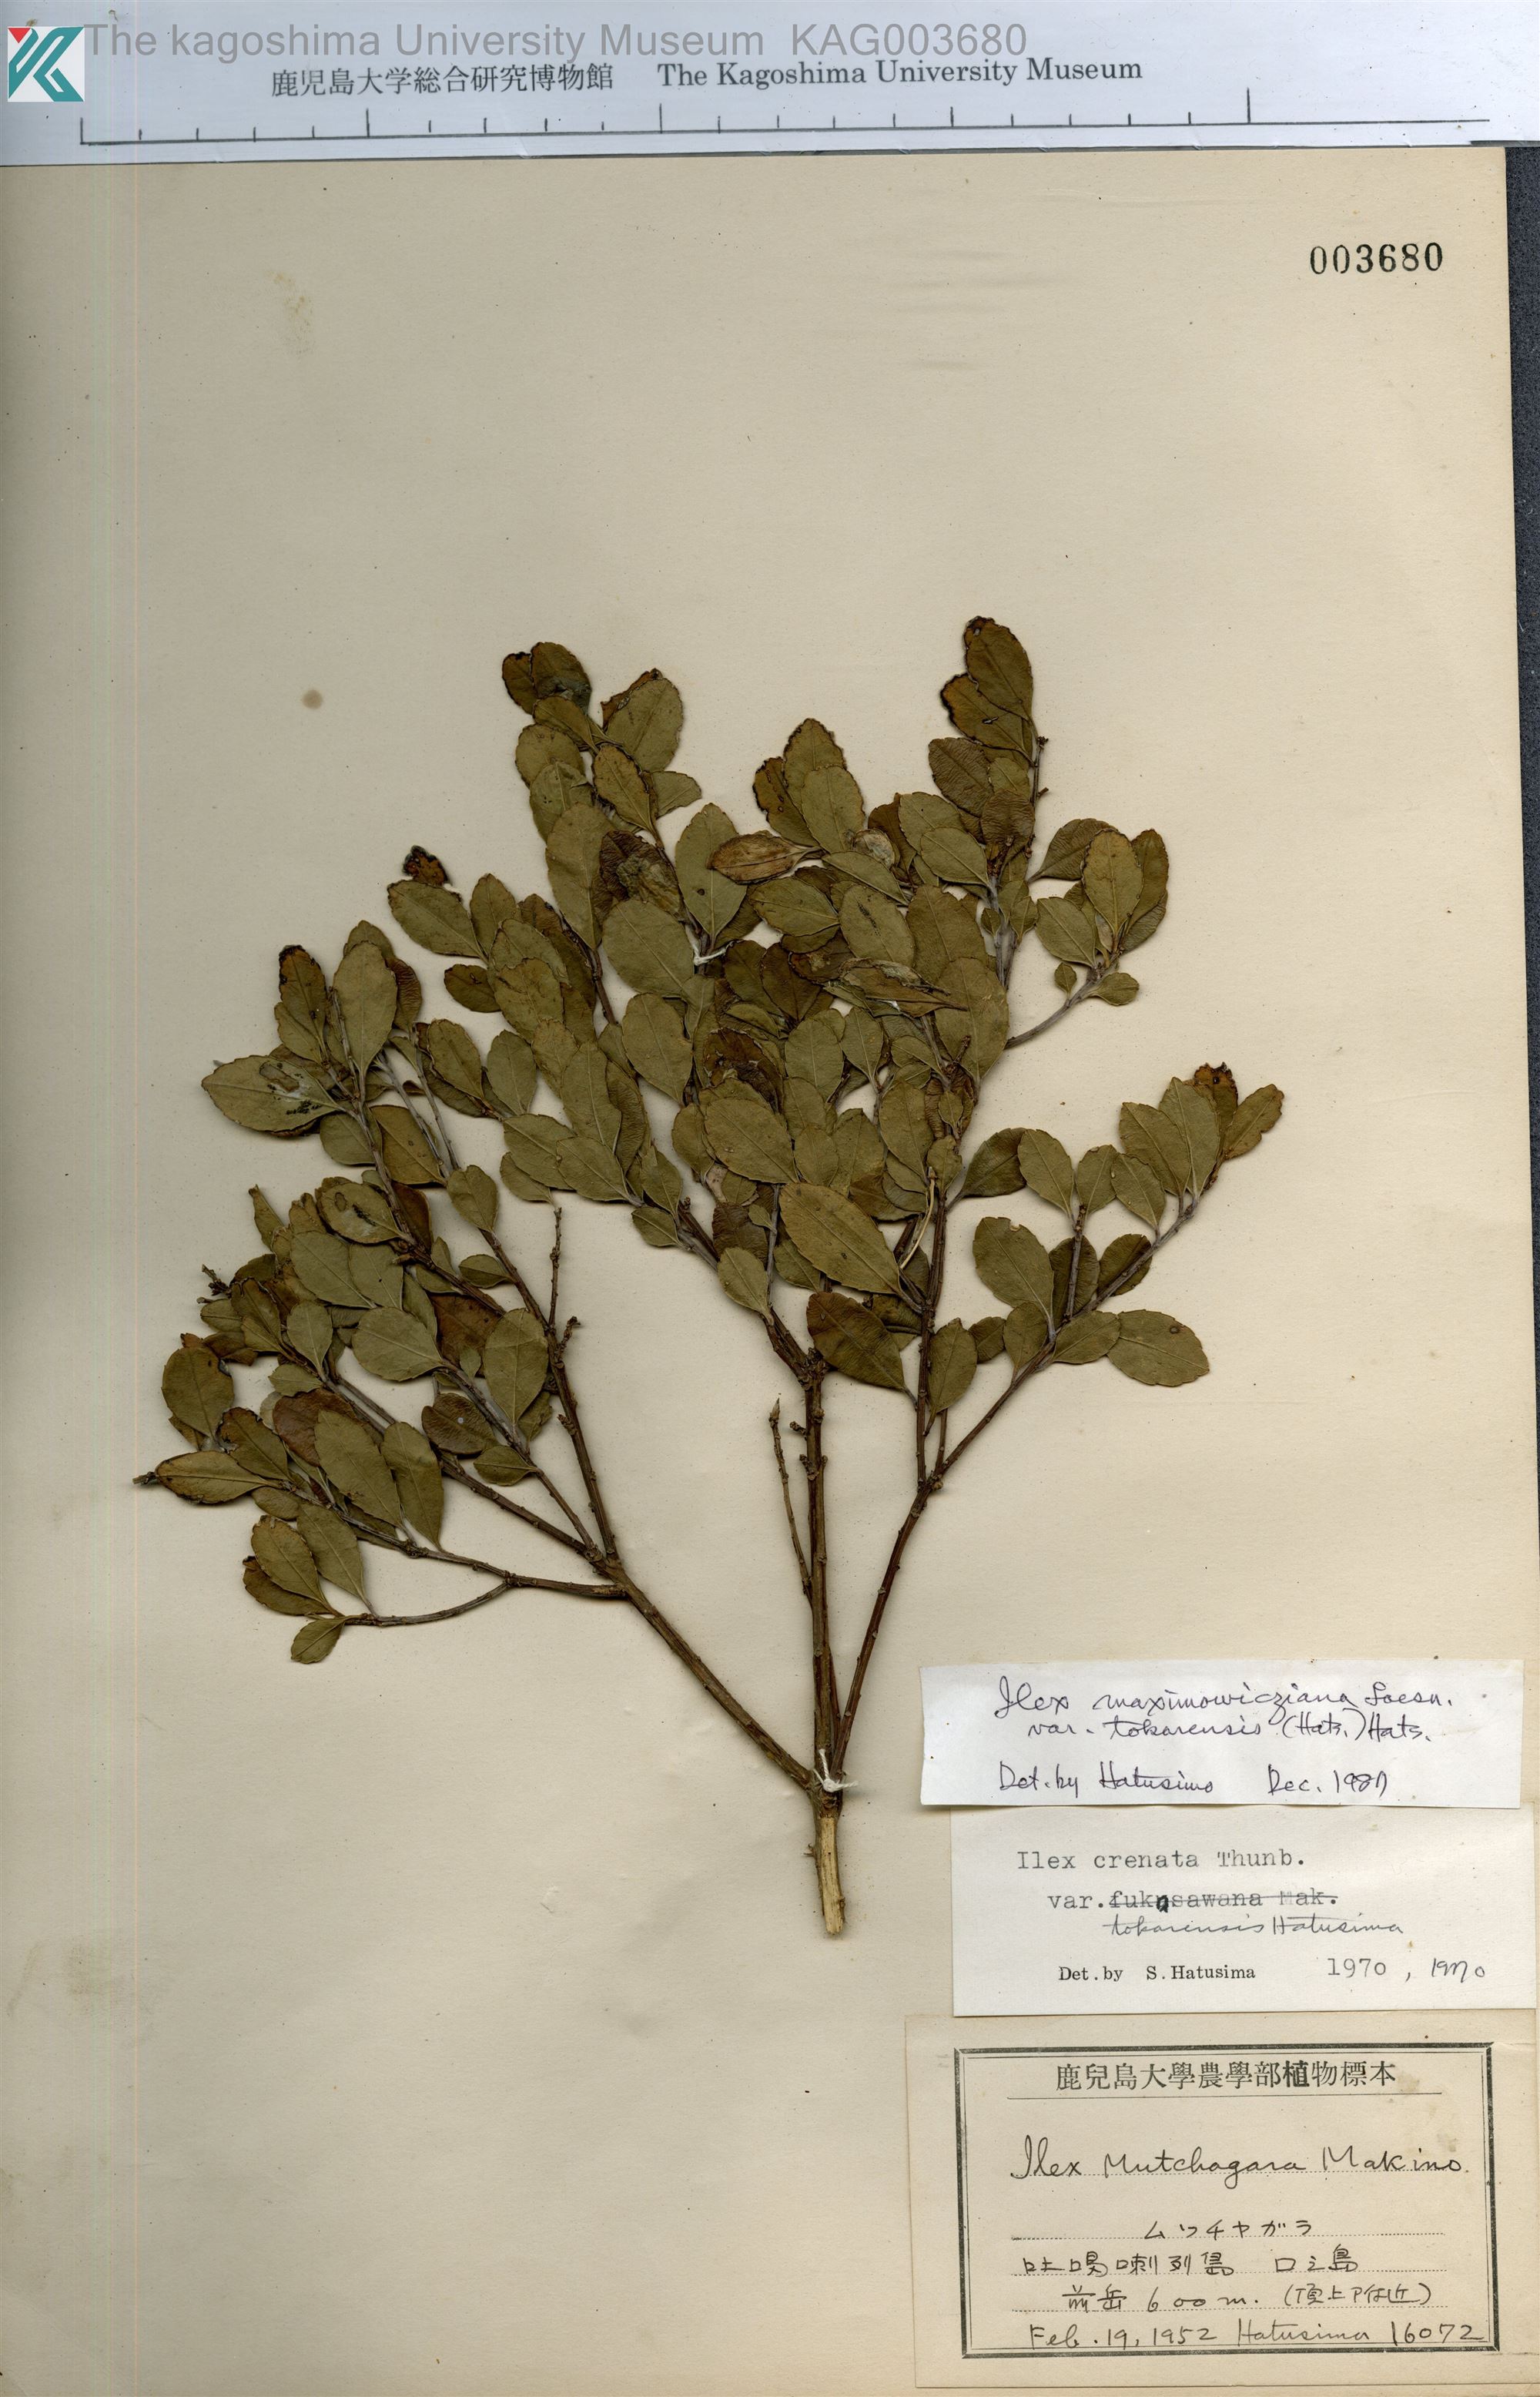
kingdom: Plantae
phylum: Tracheophyta
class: Magnoliopsida
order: Aquifoliales
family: Aquifoliaceae
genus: Ilex
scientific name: Ilex crenata
